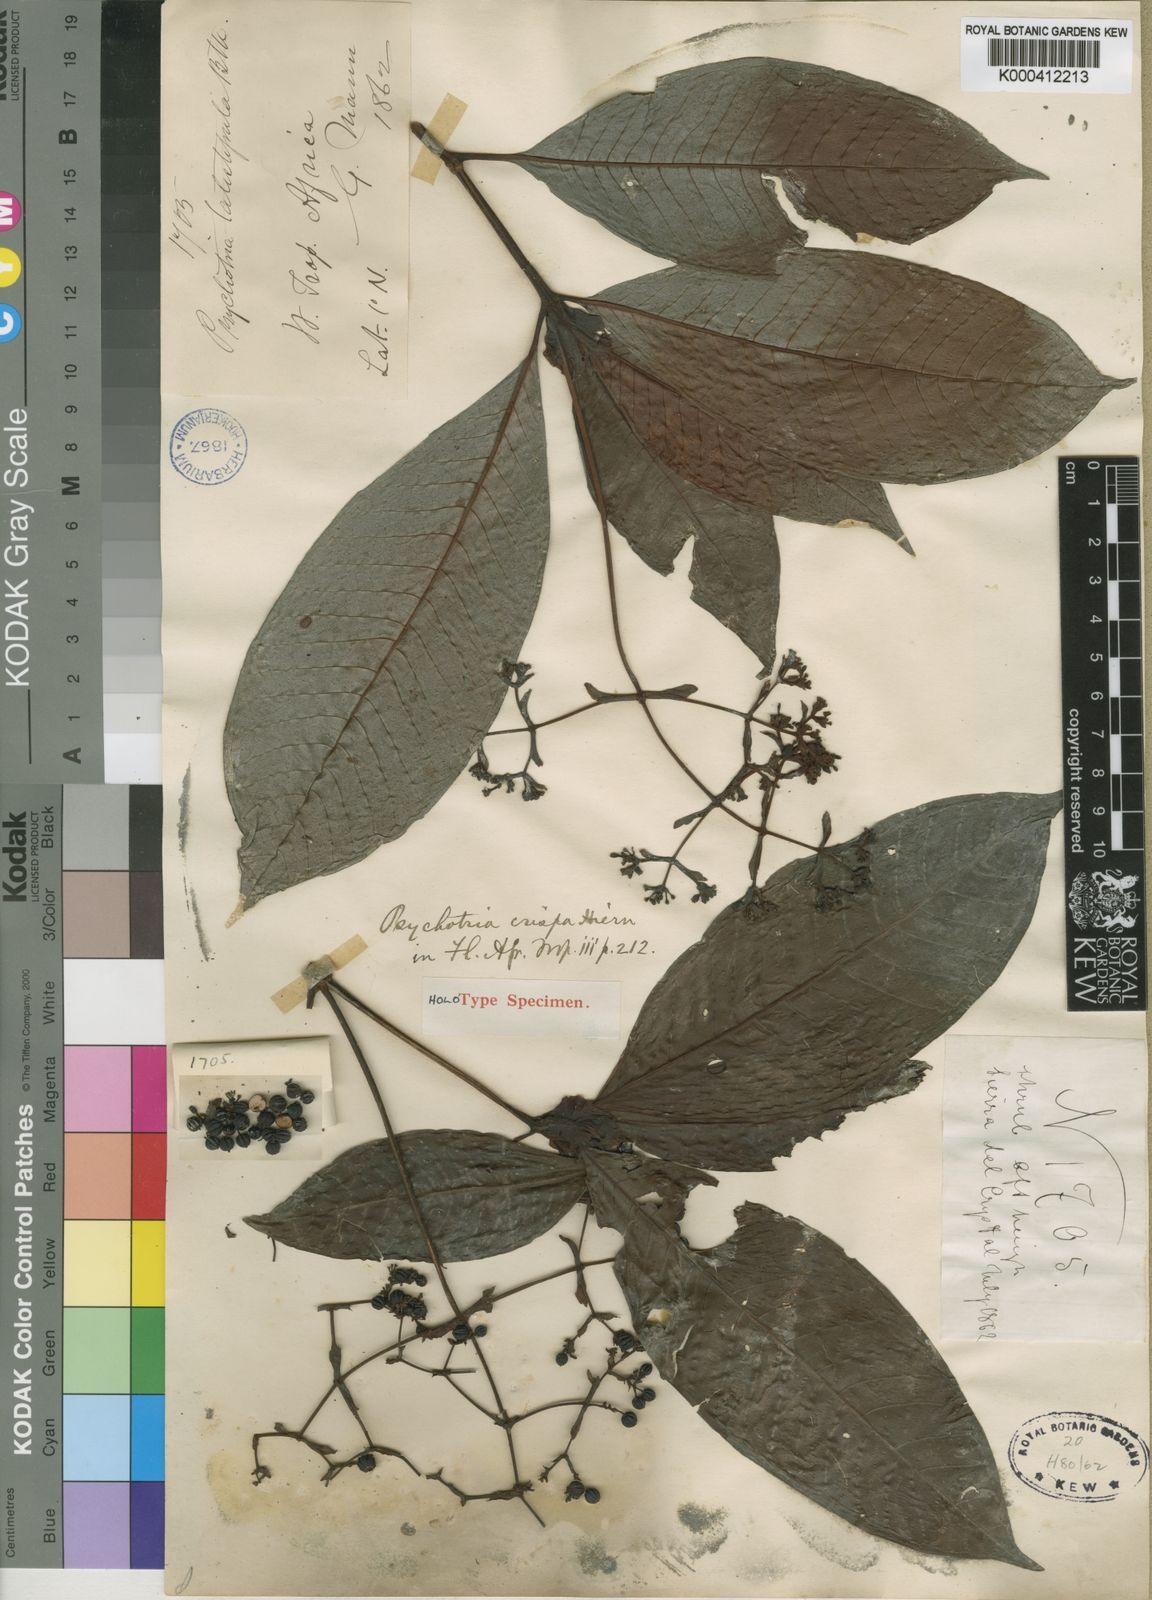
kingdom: Plantae
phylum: Tracheophyta
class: Magnoliopsida
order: Gentianales
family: Rubiaceae
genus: Psychotria
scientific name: Psychotria latistipula
